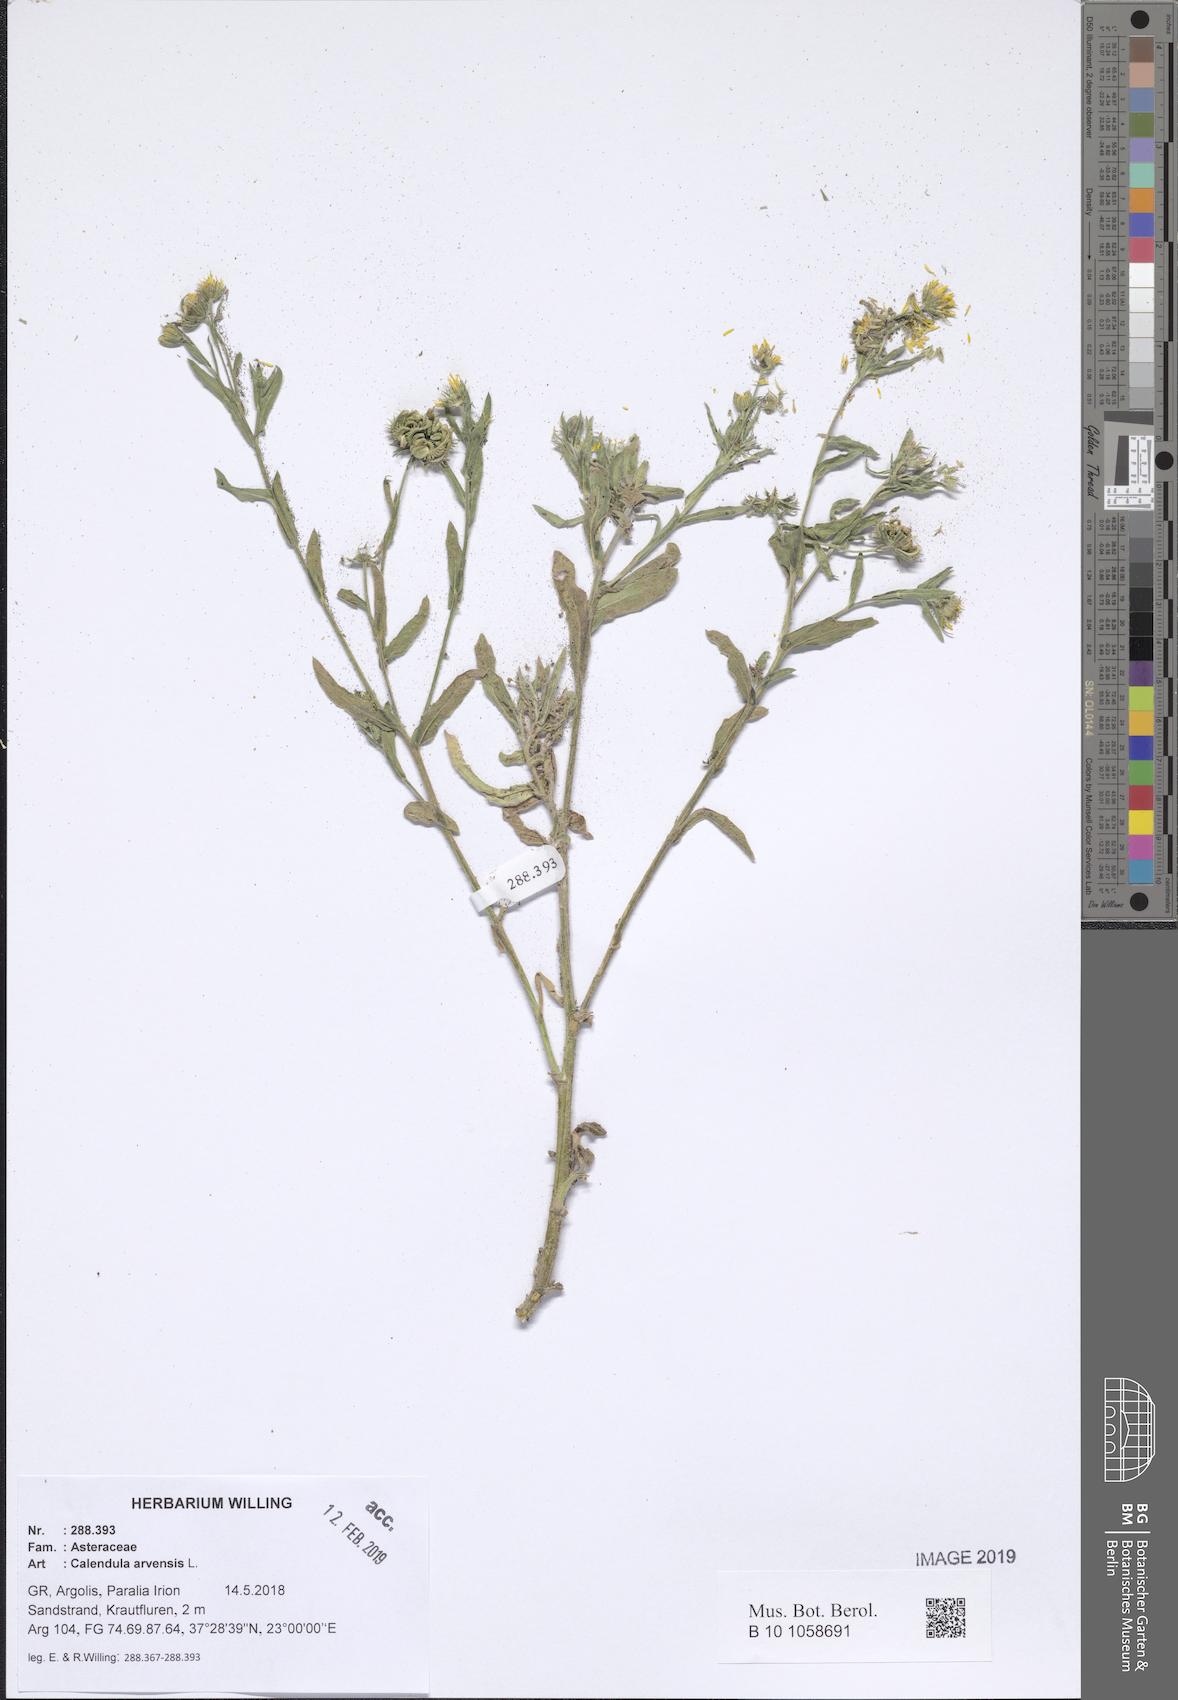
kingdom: Plantae
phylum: Tracheophyta
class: Magnoliopsida
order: Asterales
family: Asteraceae
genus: Calendula
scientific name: Calendula arvensis
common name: Field marigold
